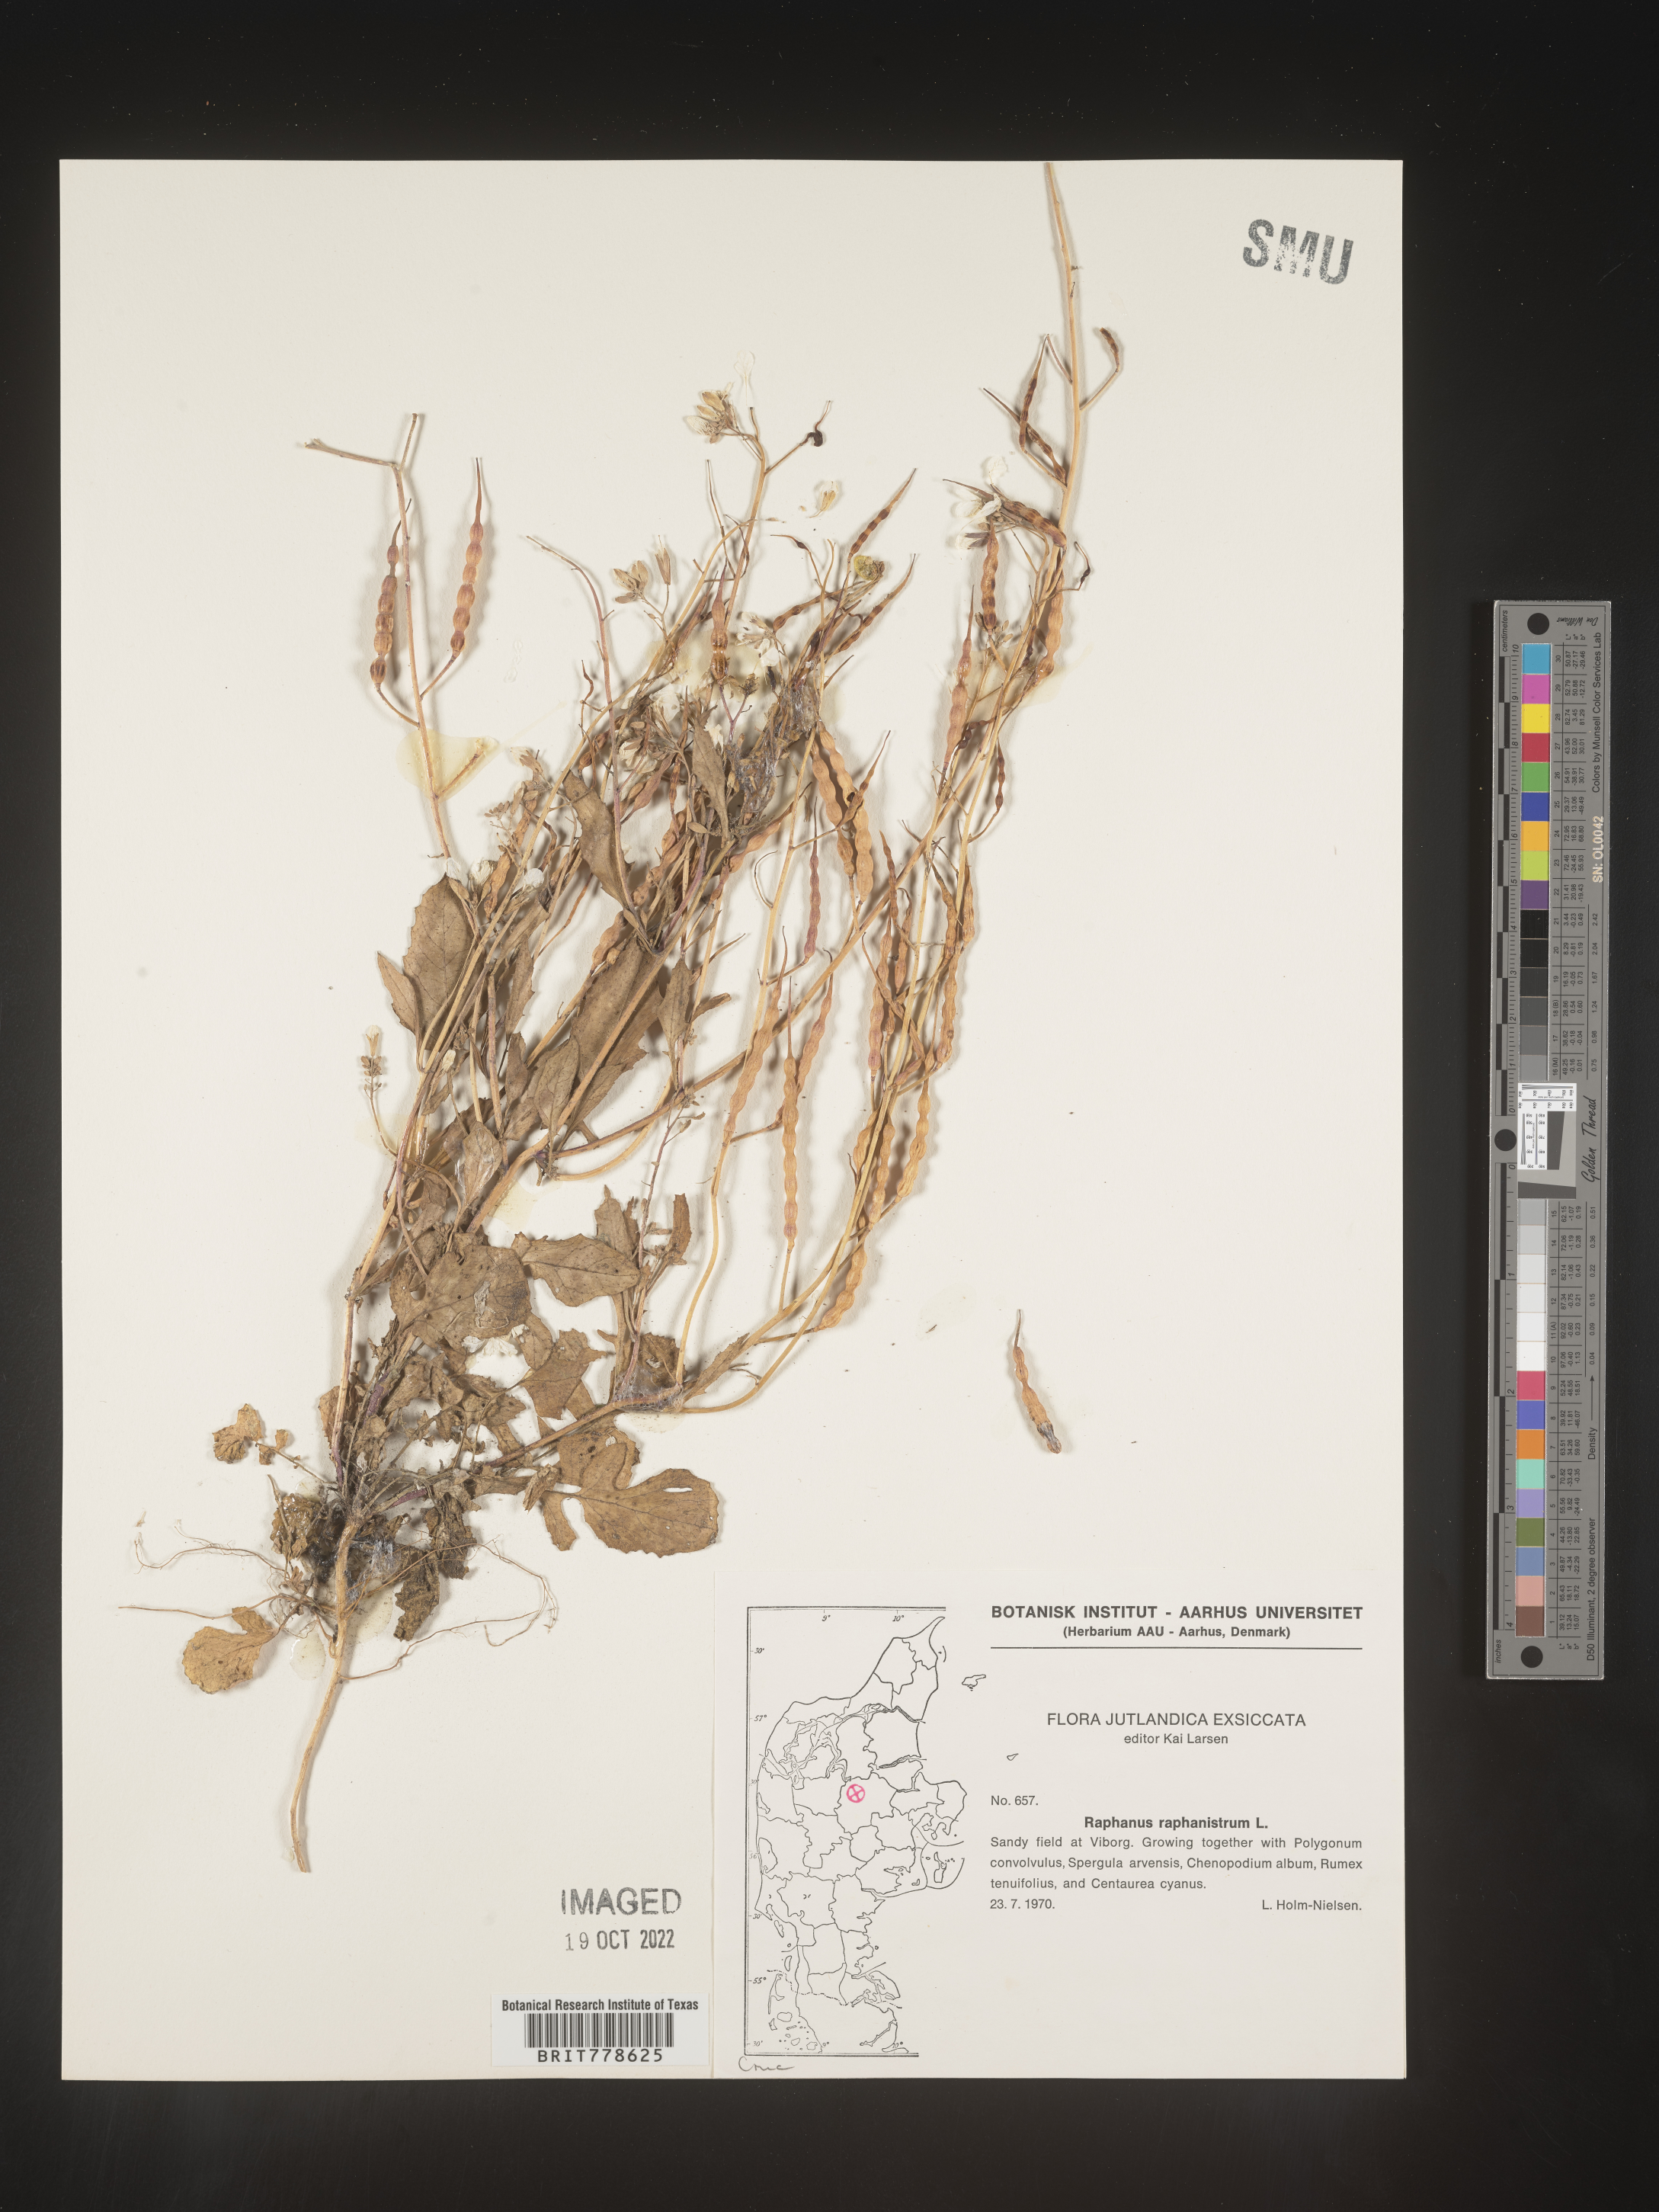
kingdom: Plantae
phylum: Tracheophyta
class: Magnoliopsida
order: Brassicales
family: Brassicaceae
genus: Raphanus
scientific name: Raphanus raphanistrum
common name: Wild radish
